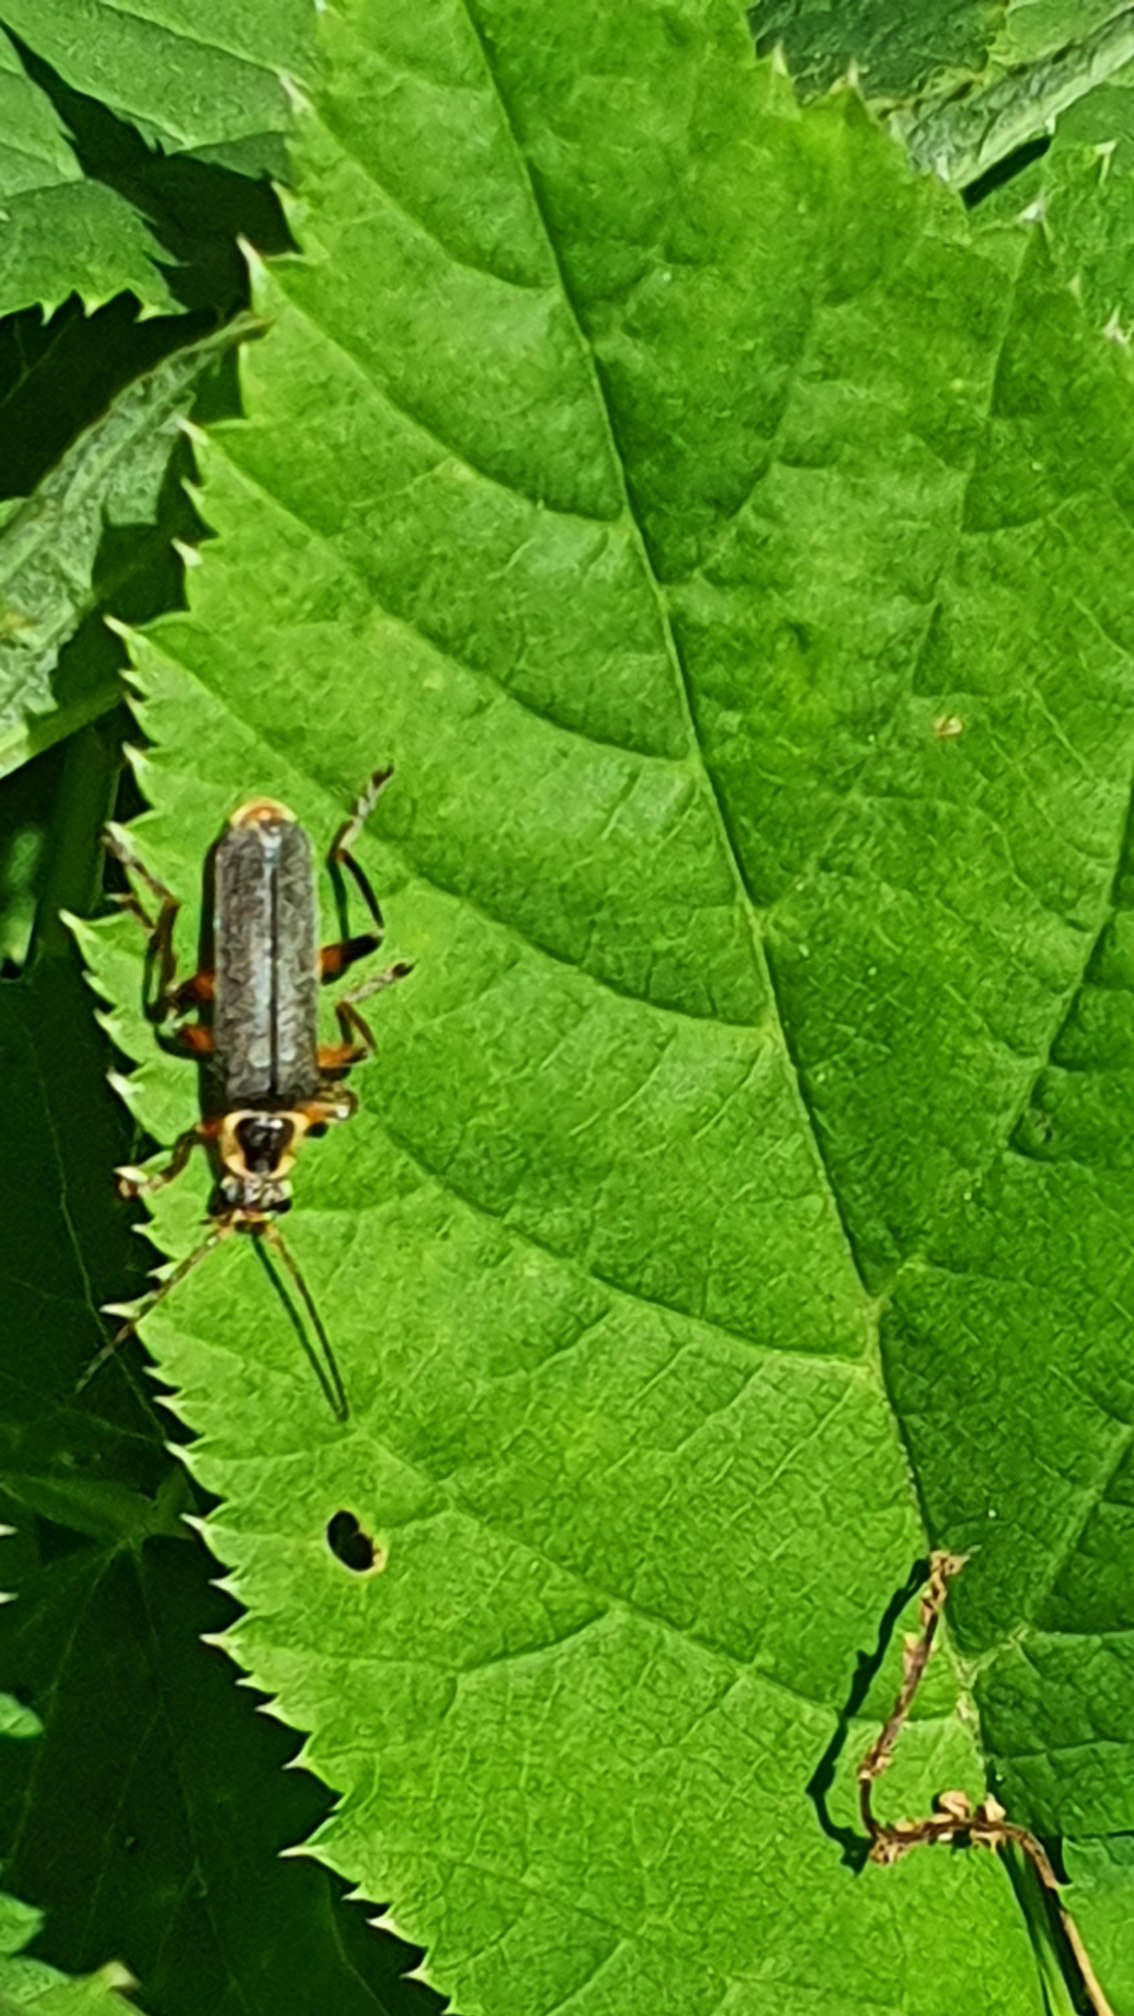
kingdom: Animalia
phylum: Arthropoda
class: Insecta
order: Coleoptera
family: Cantharidae
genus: Cantharis
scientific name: Cantharis nigricans
